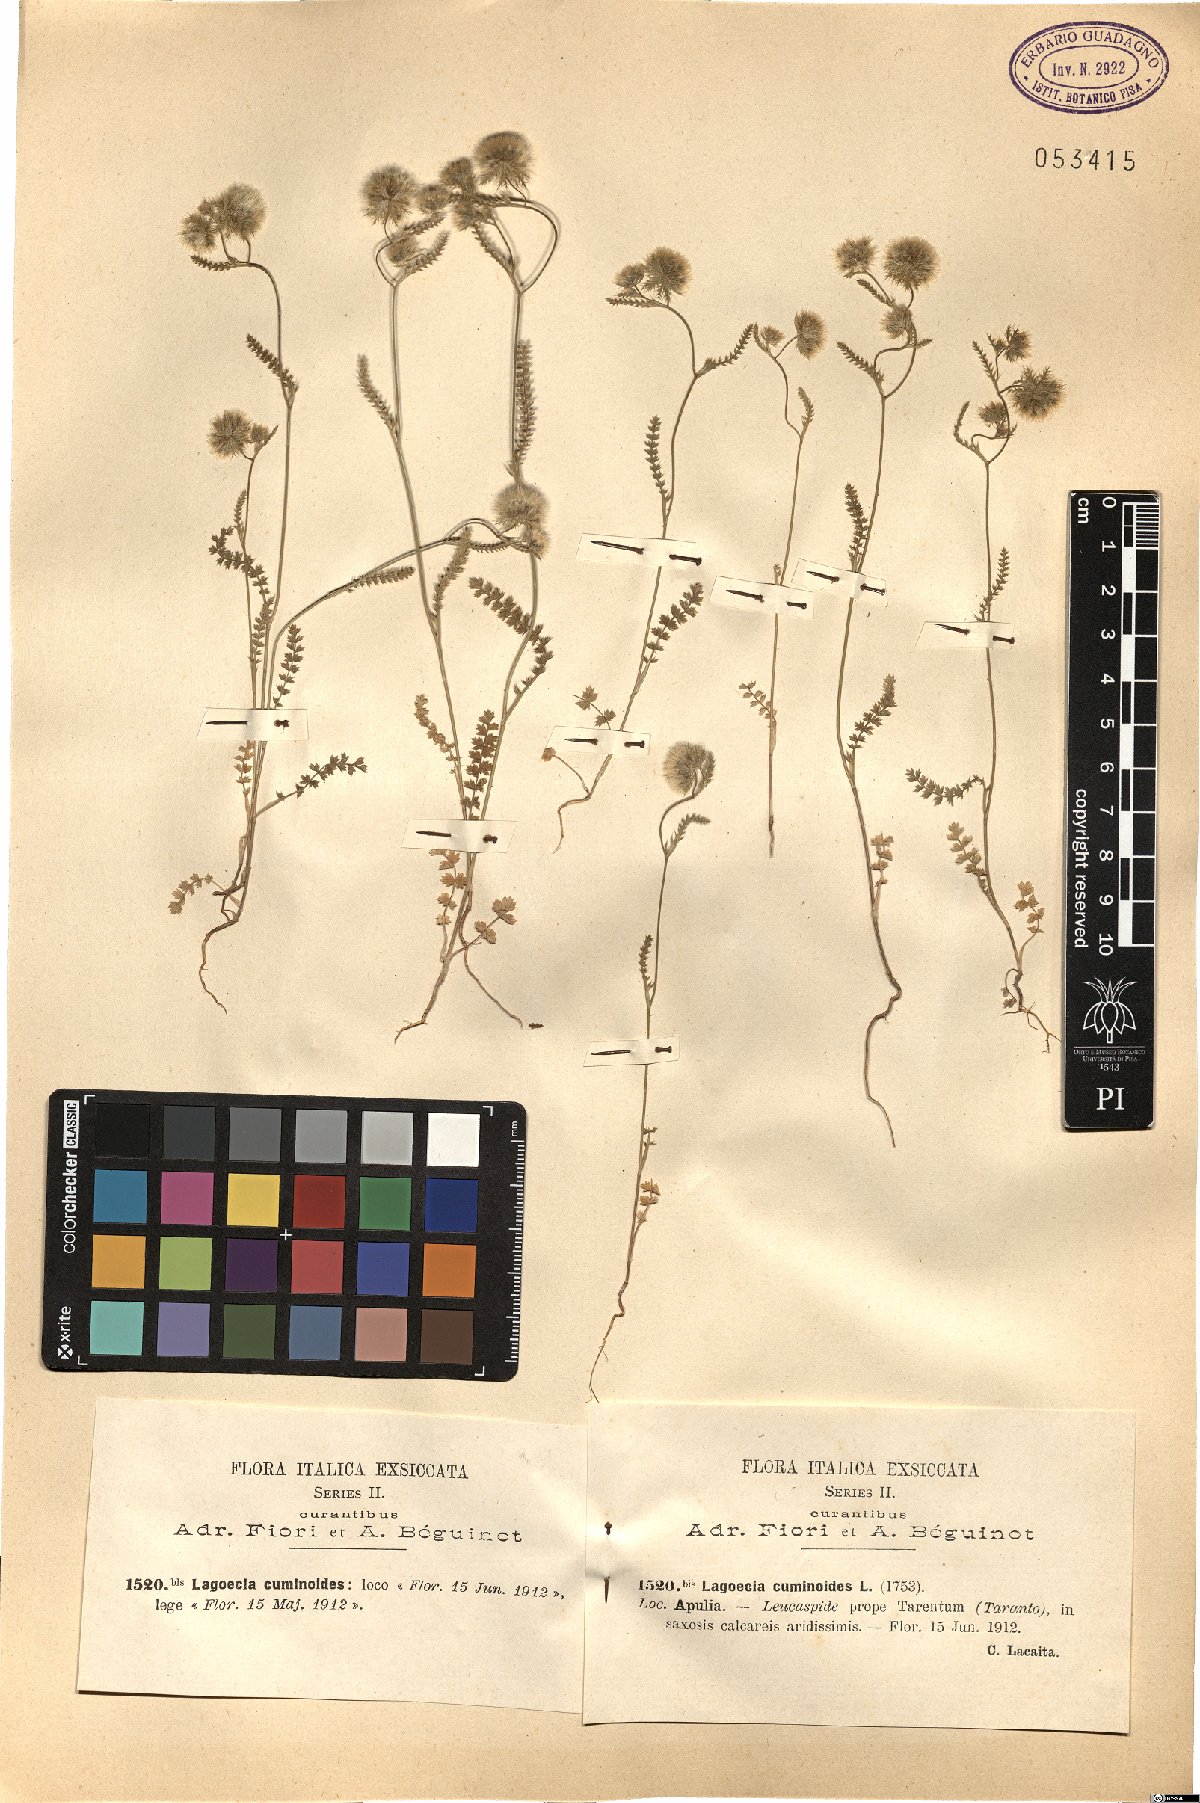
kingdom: Plantae
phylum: Tracheophyta
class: Magnoliopsida
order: Apiales
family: Apiaceae
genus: Lagoecia
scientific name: Lagoecia cuminoides
